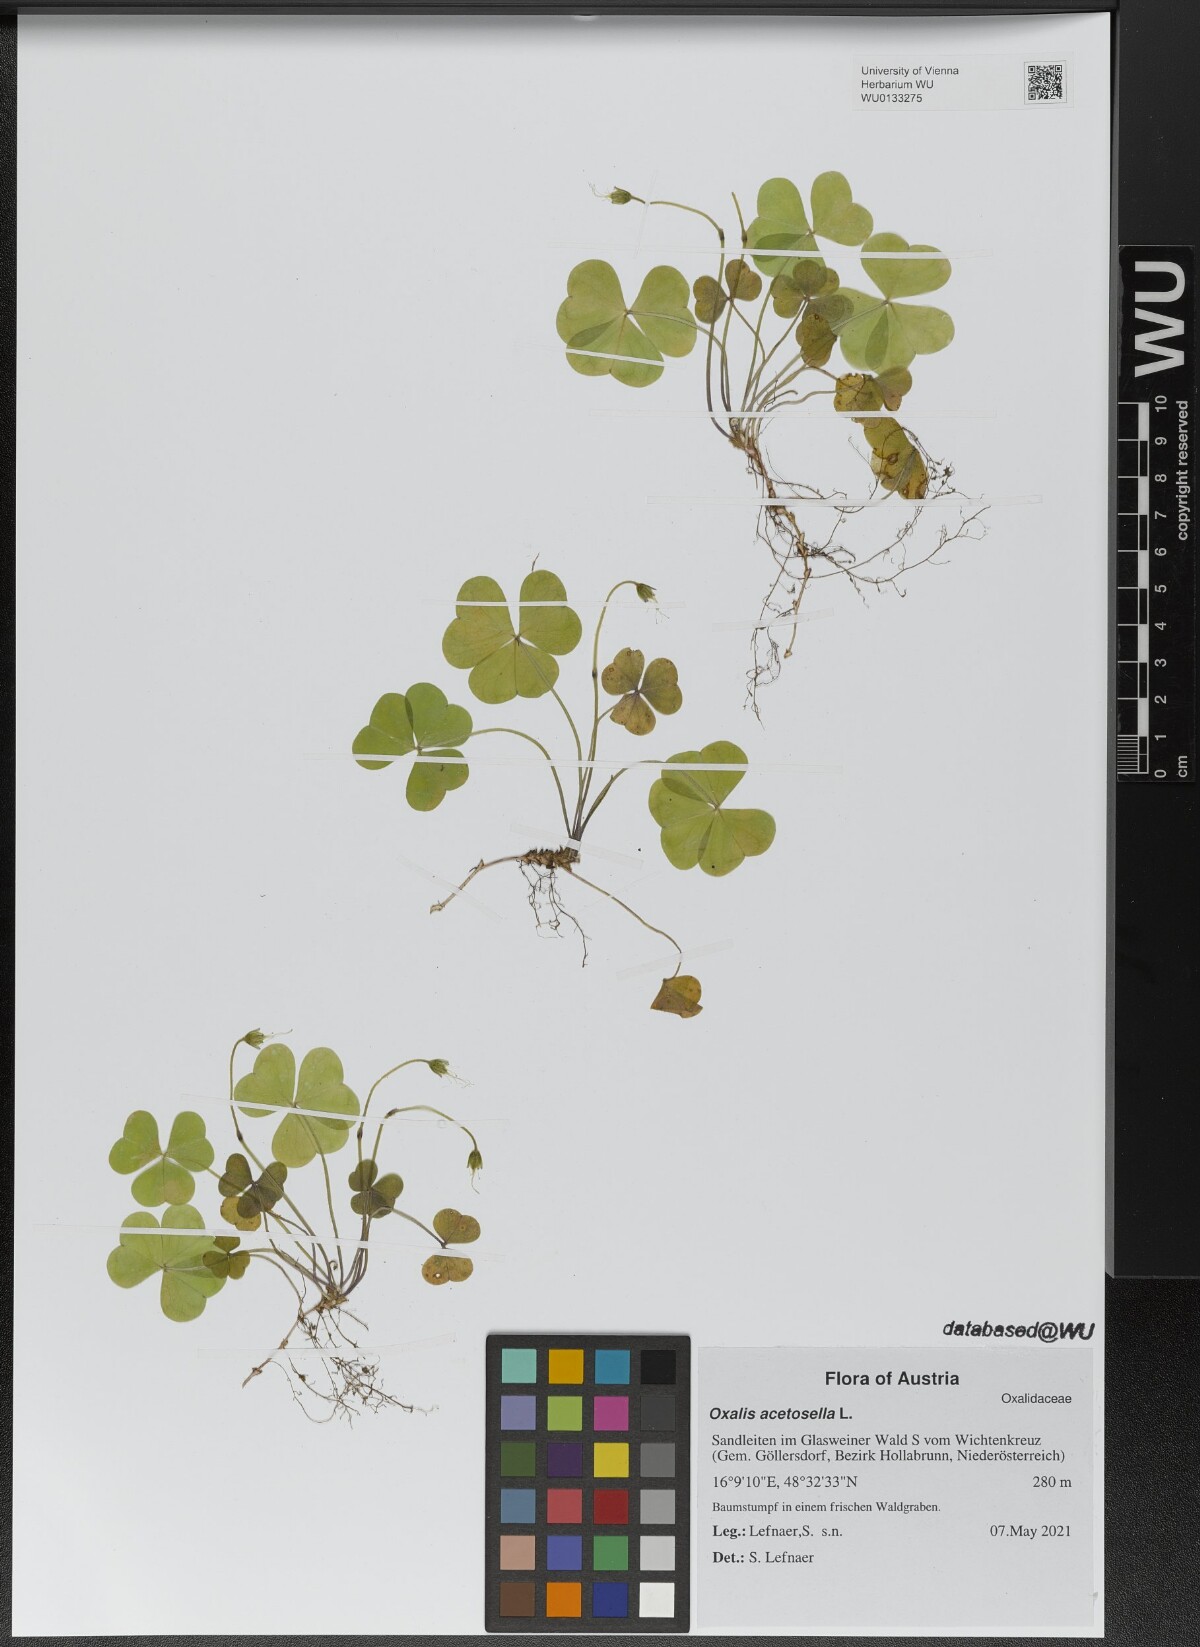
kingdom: Plantae
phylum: Tracheophyta
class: Magnoliopsida
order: Oxalidales
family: Oxalidaceae
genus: Oxalis
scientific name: Oxalis acetosella
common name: Wood-sorrel
